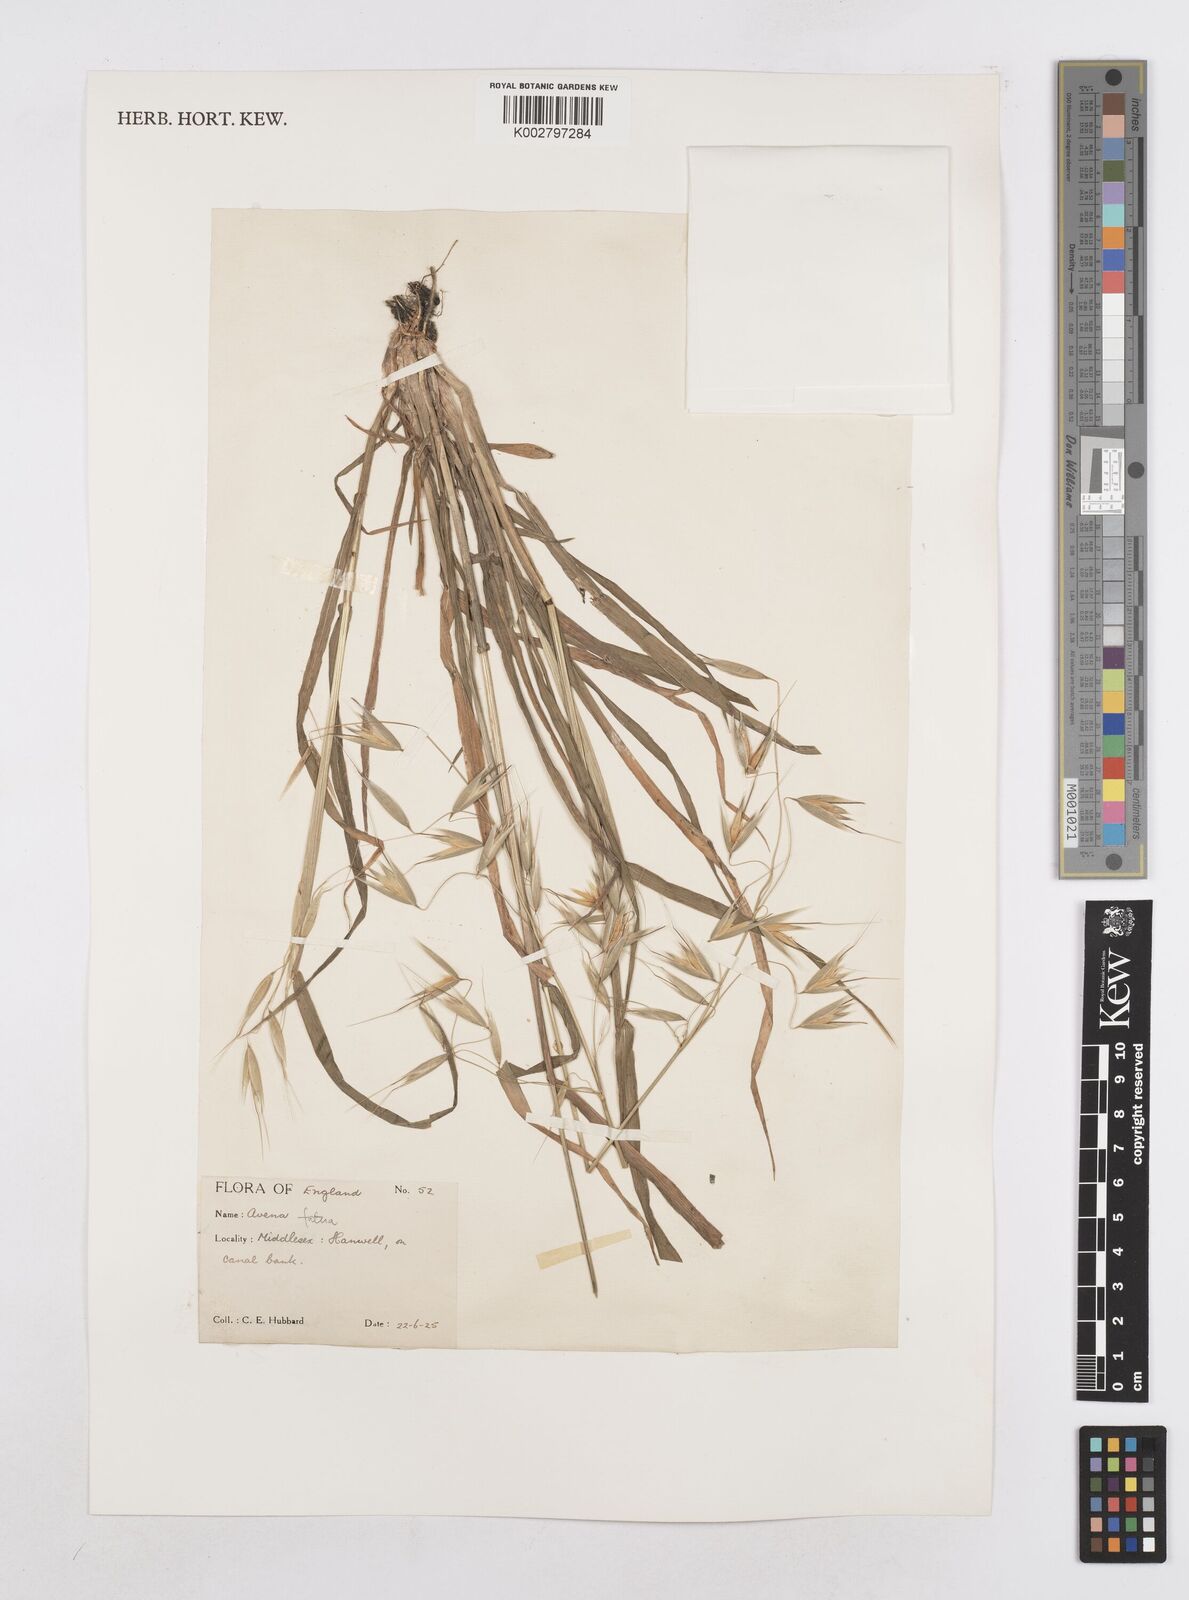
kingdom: Plantae
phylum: Tracheophyta
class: Liliopsida
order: Poales
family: Poaceae
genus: Avena
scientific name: Avena fatua
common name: Wild oat
